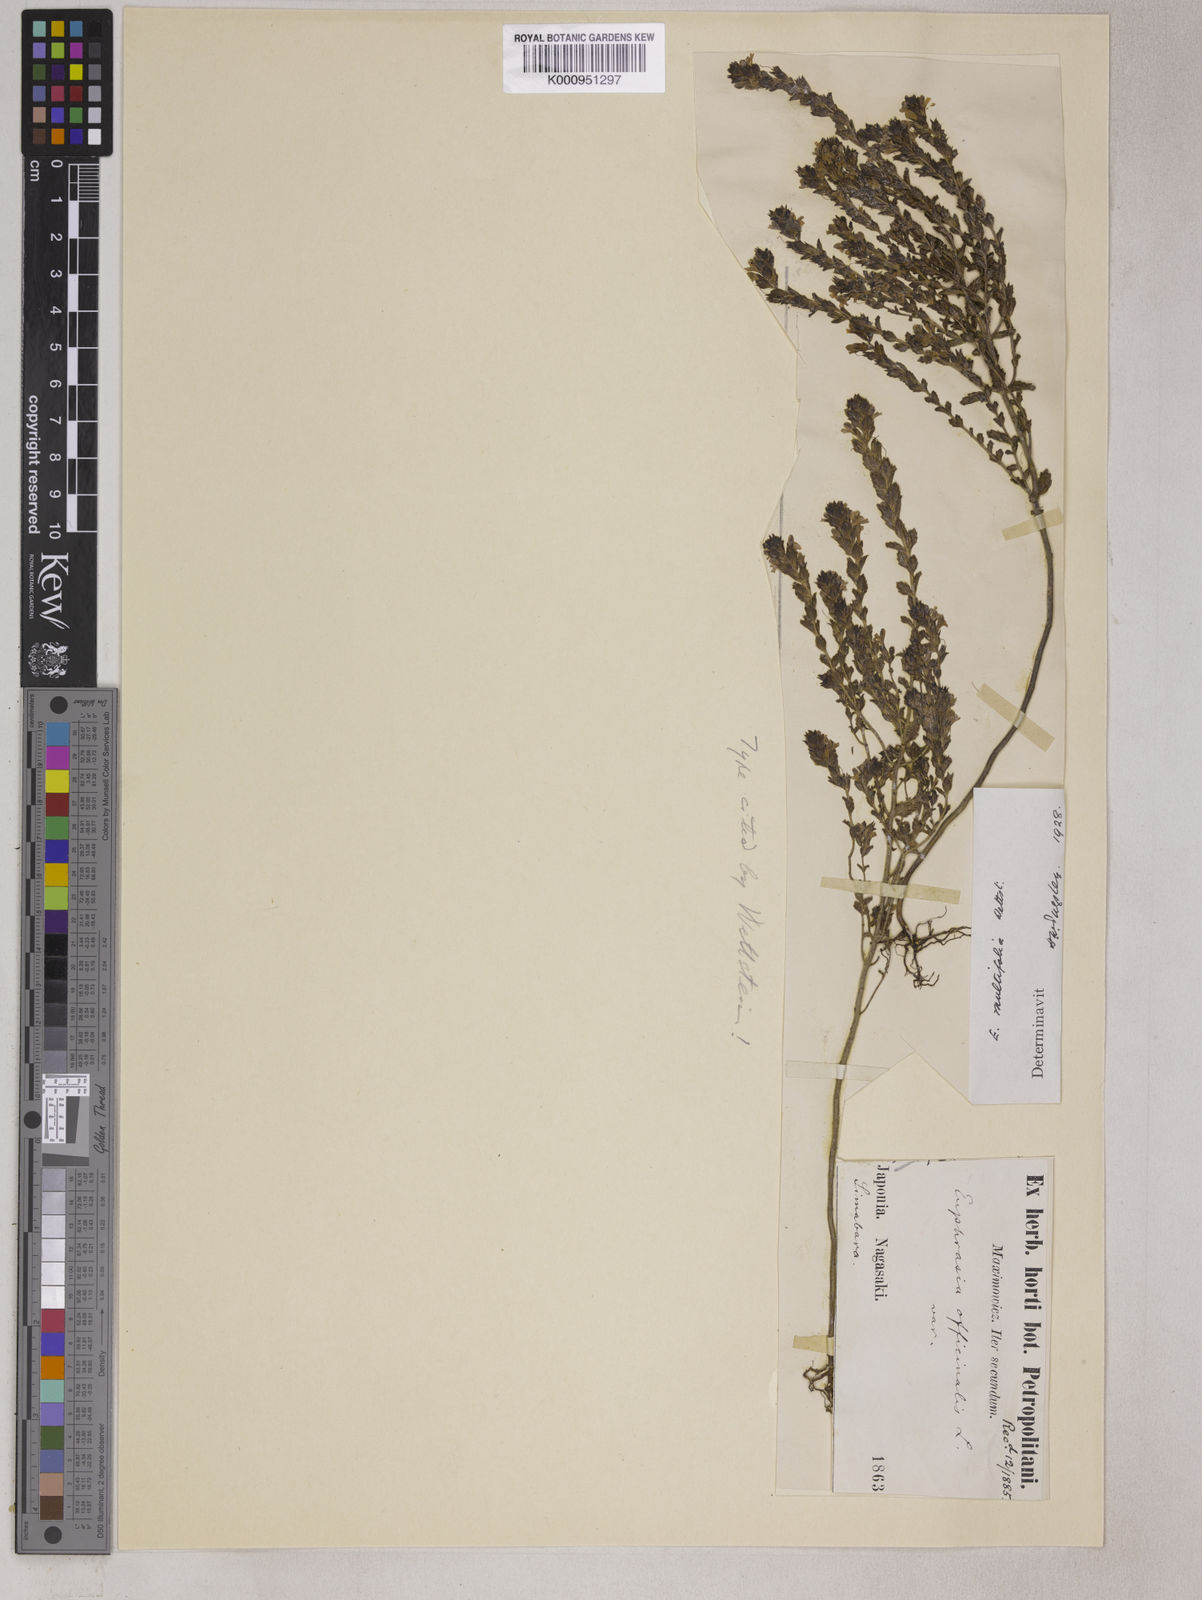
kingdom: Plantae
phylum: Tracheophyta
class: Magnoliopsida
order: Lamiales
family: Orobanchaceae
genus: Euphrasia
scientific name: Euphrasia multifolia
